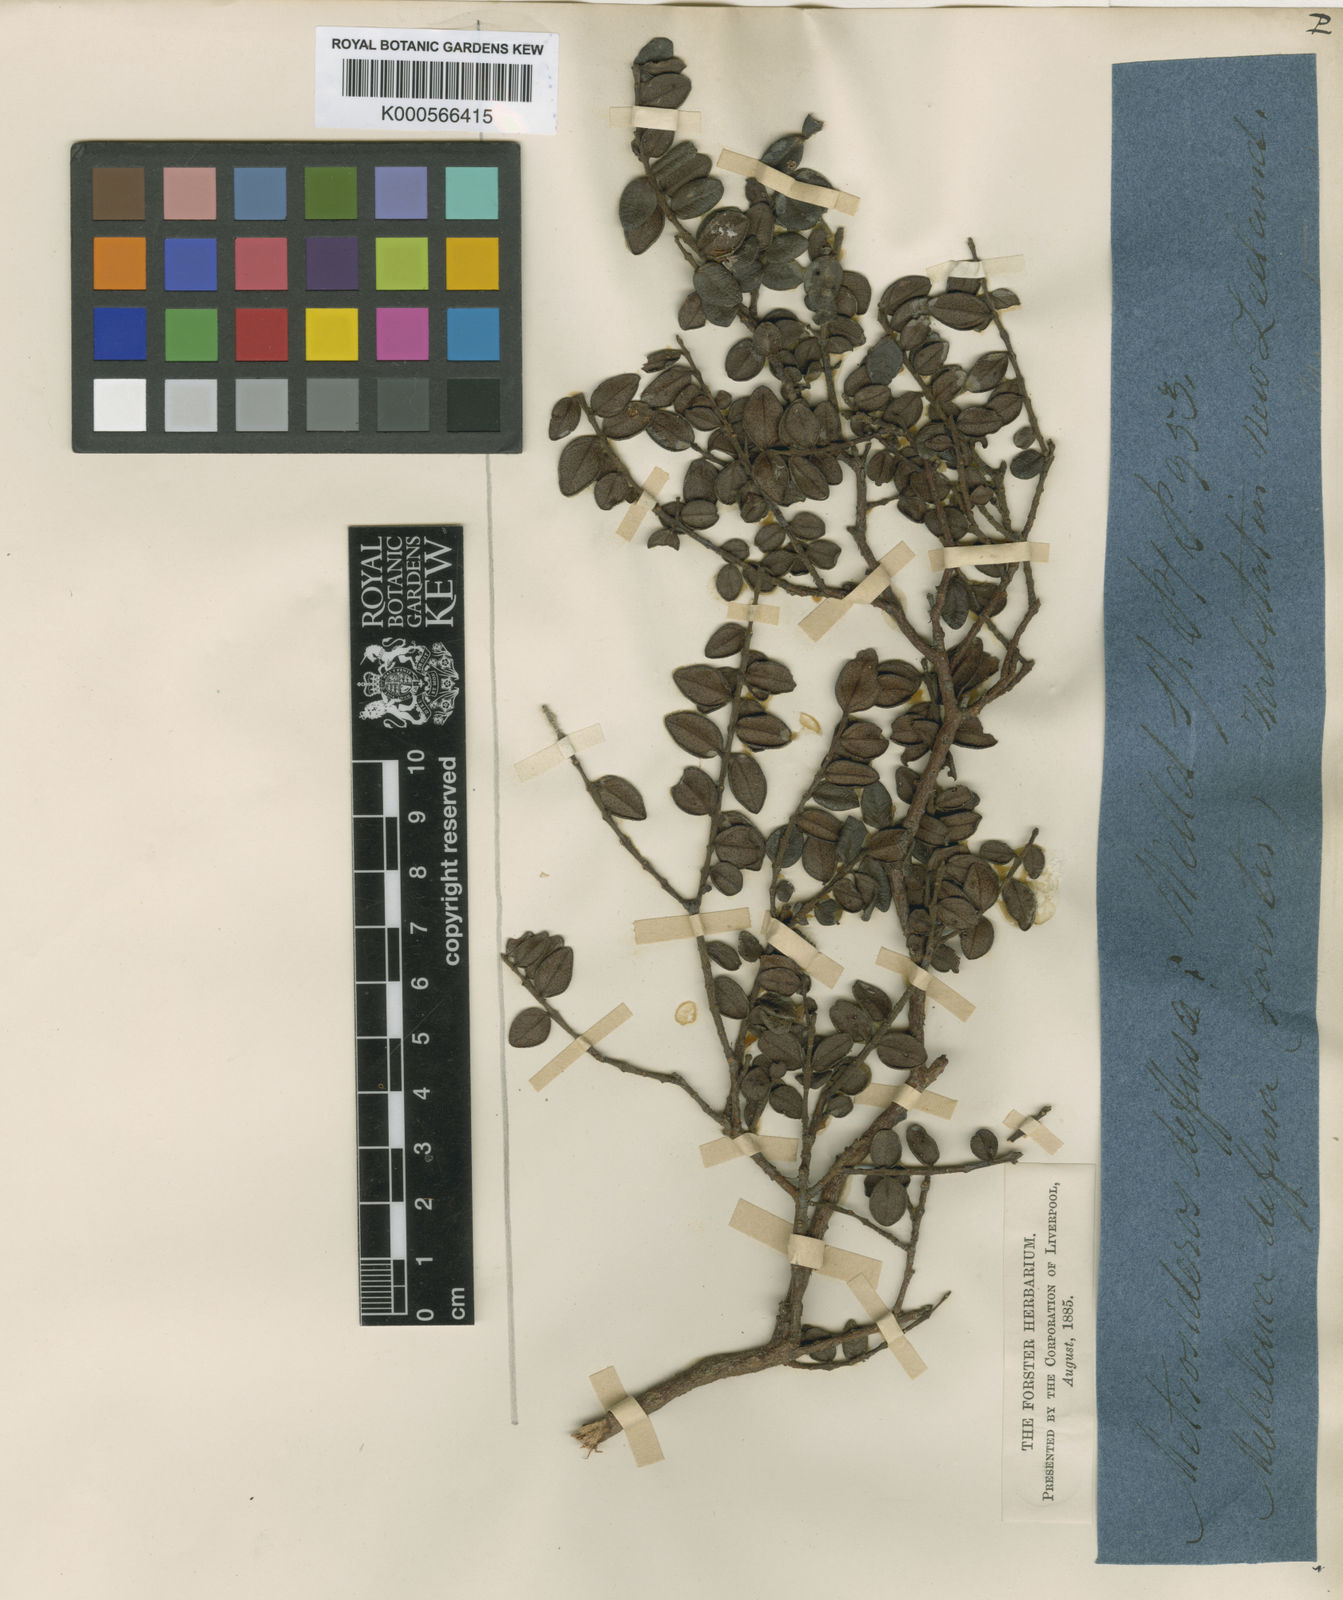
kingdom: Plantae
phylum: Tracheophyta
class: Magnoliopsida
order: Myrtales
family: Myrtaceae
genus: Metrosideros
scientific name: Metrosideros diffusa
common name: Small ratavine
